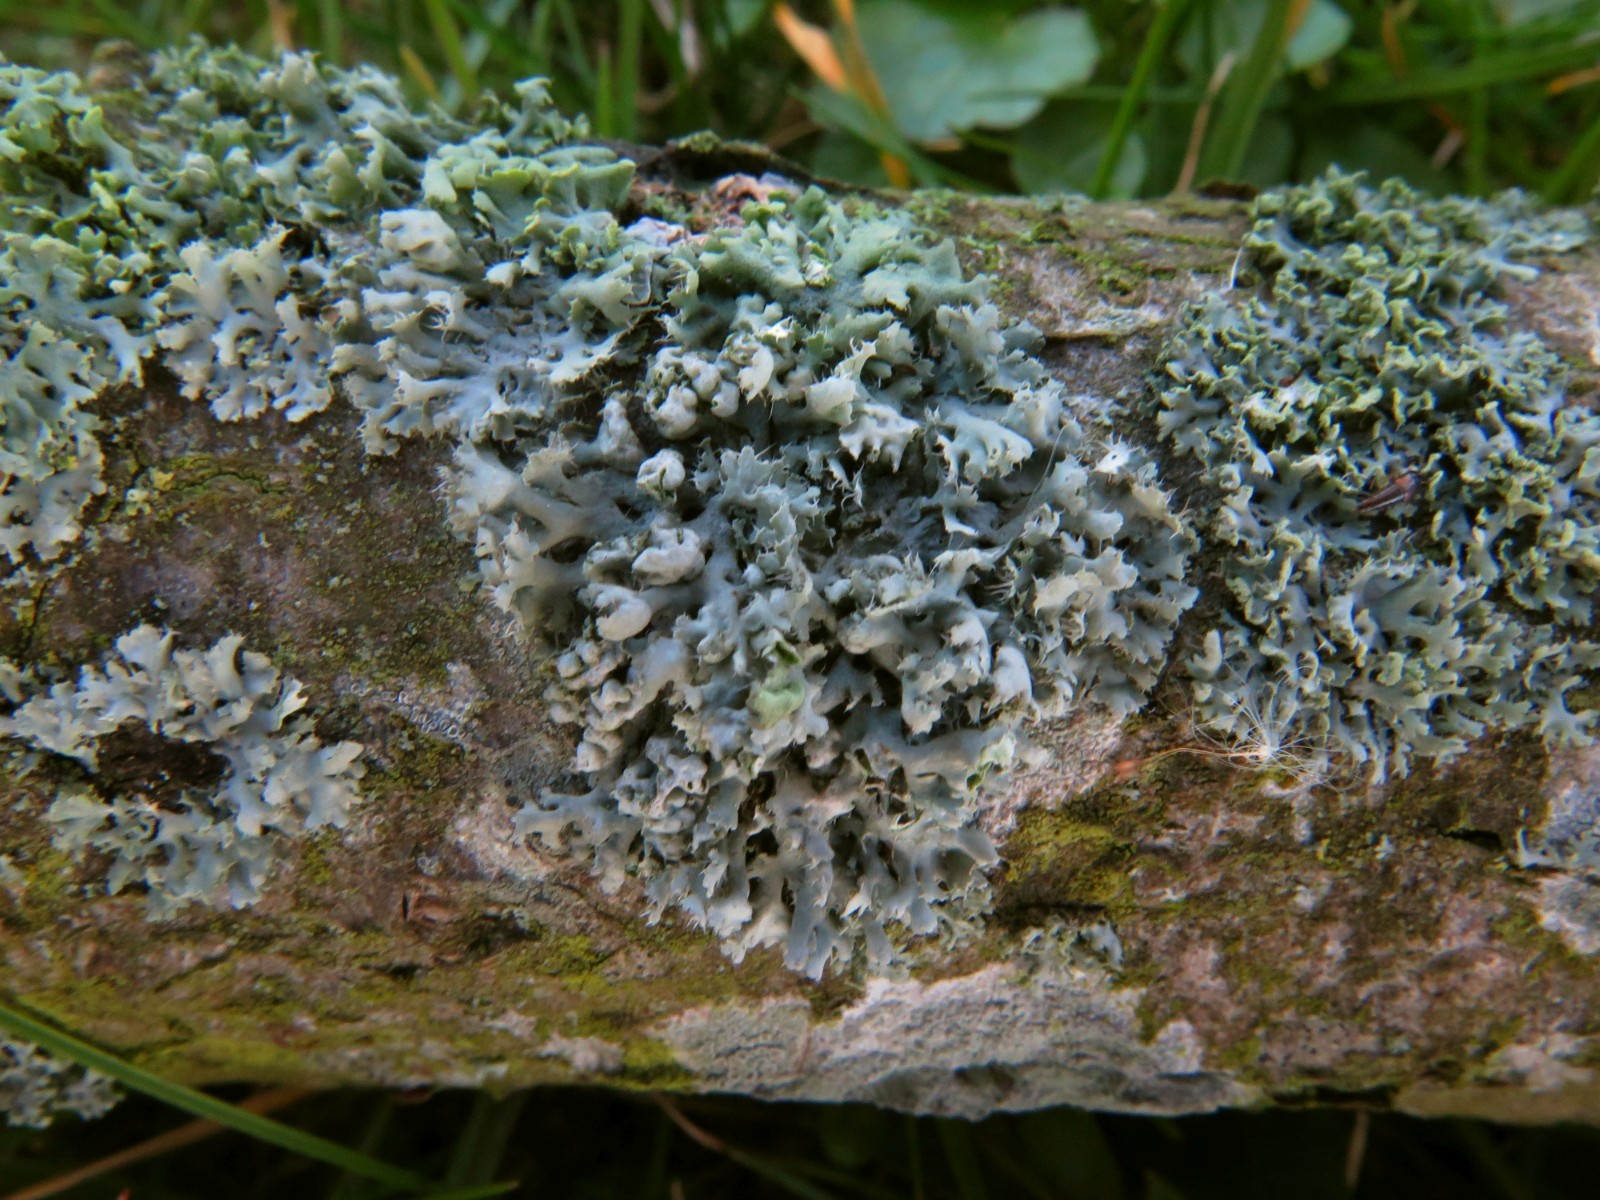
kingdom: Fungi
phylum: Ascomycota
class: Lecanoromycetes
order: Caliciales
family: Physciaceae
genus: Physcia
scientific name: Physcia adscendens
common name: hætte-rosetlav
